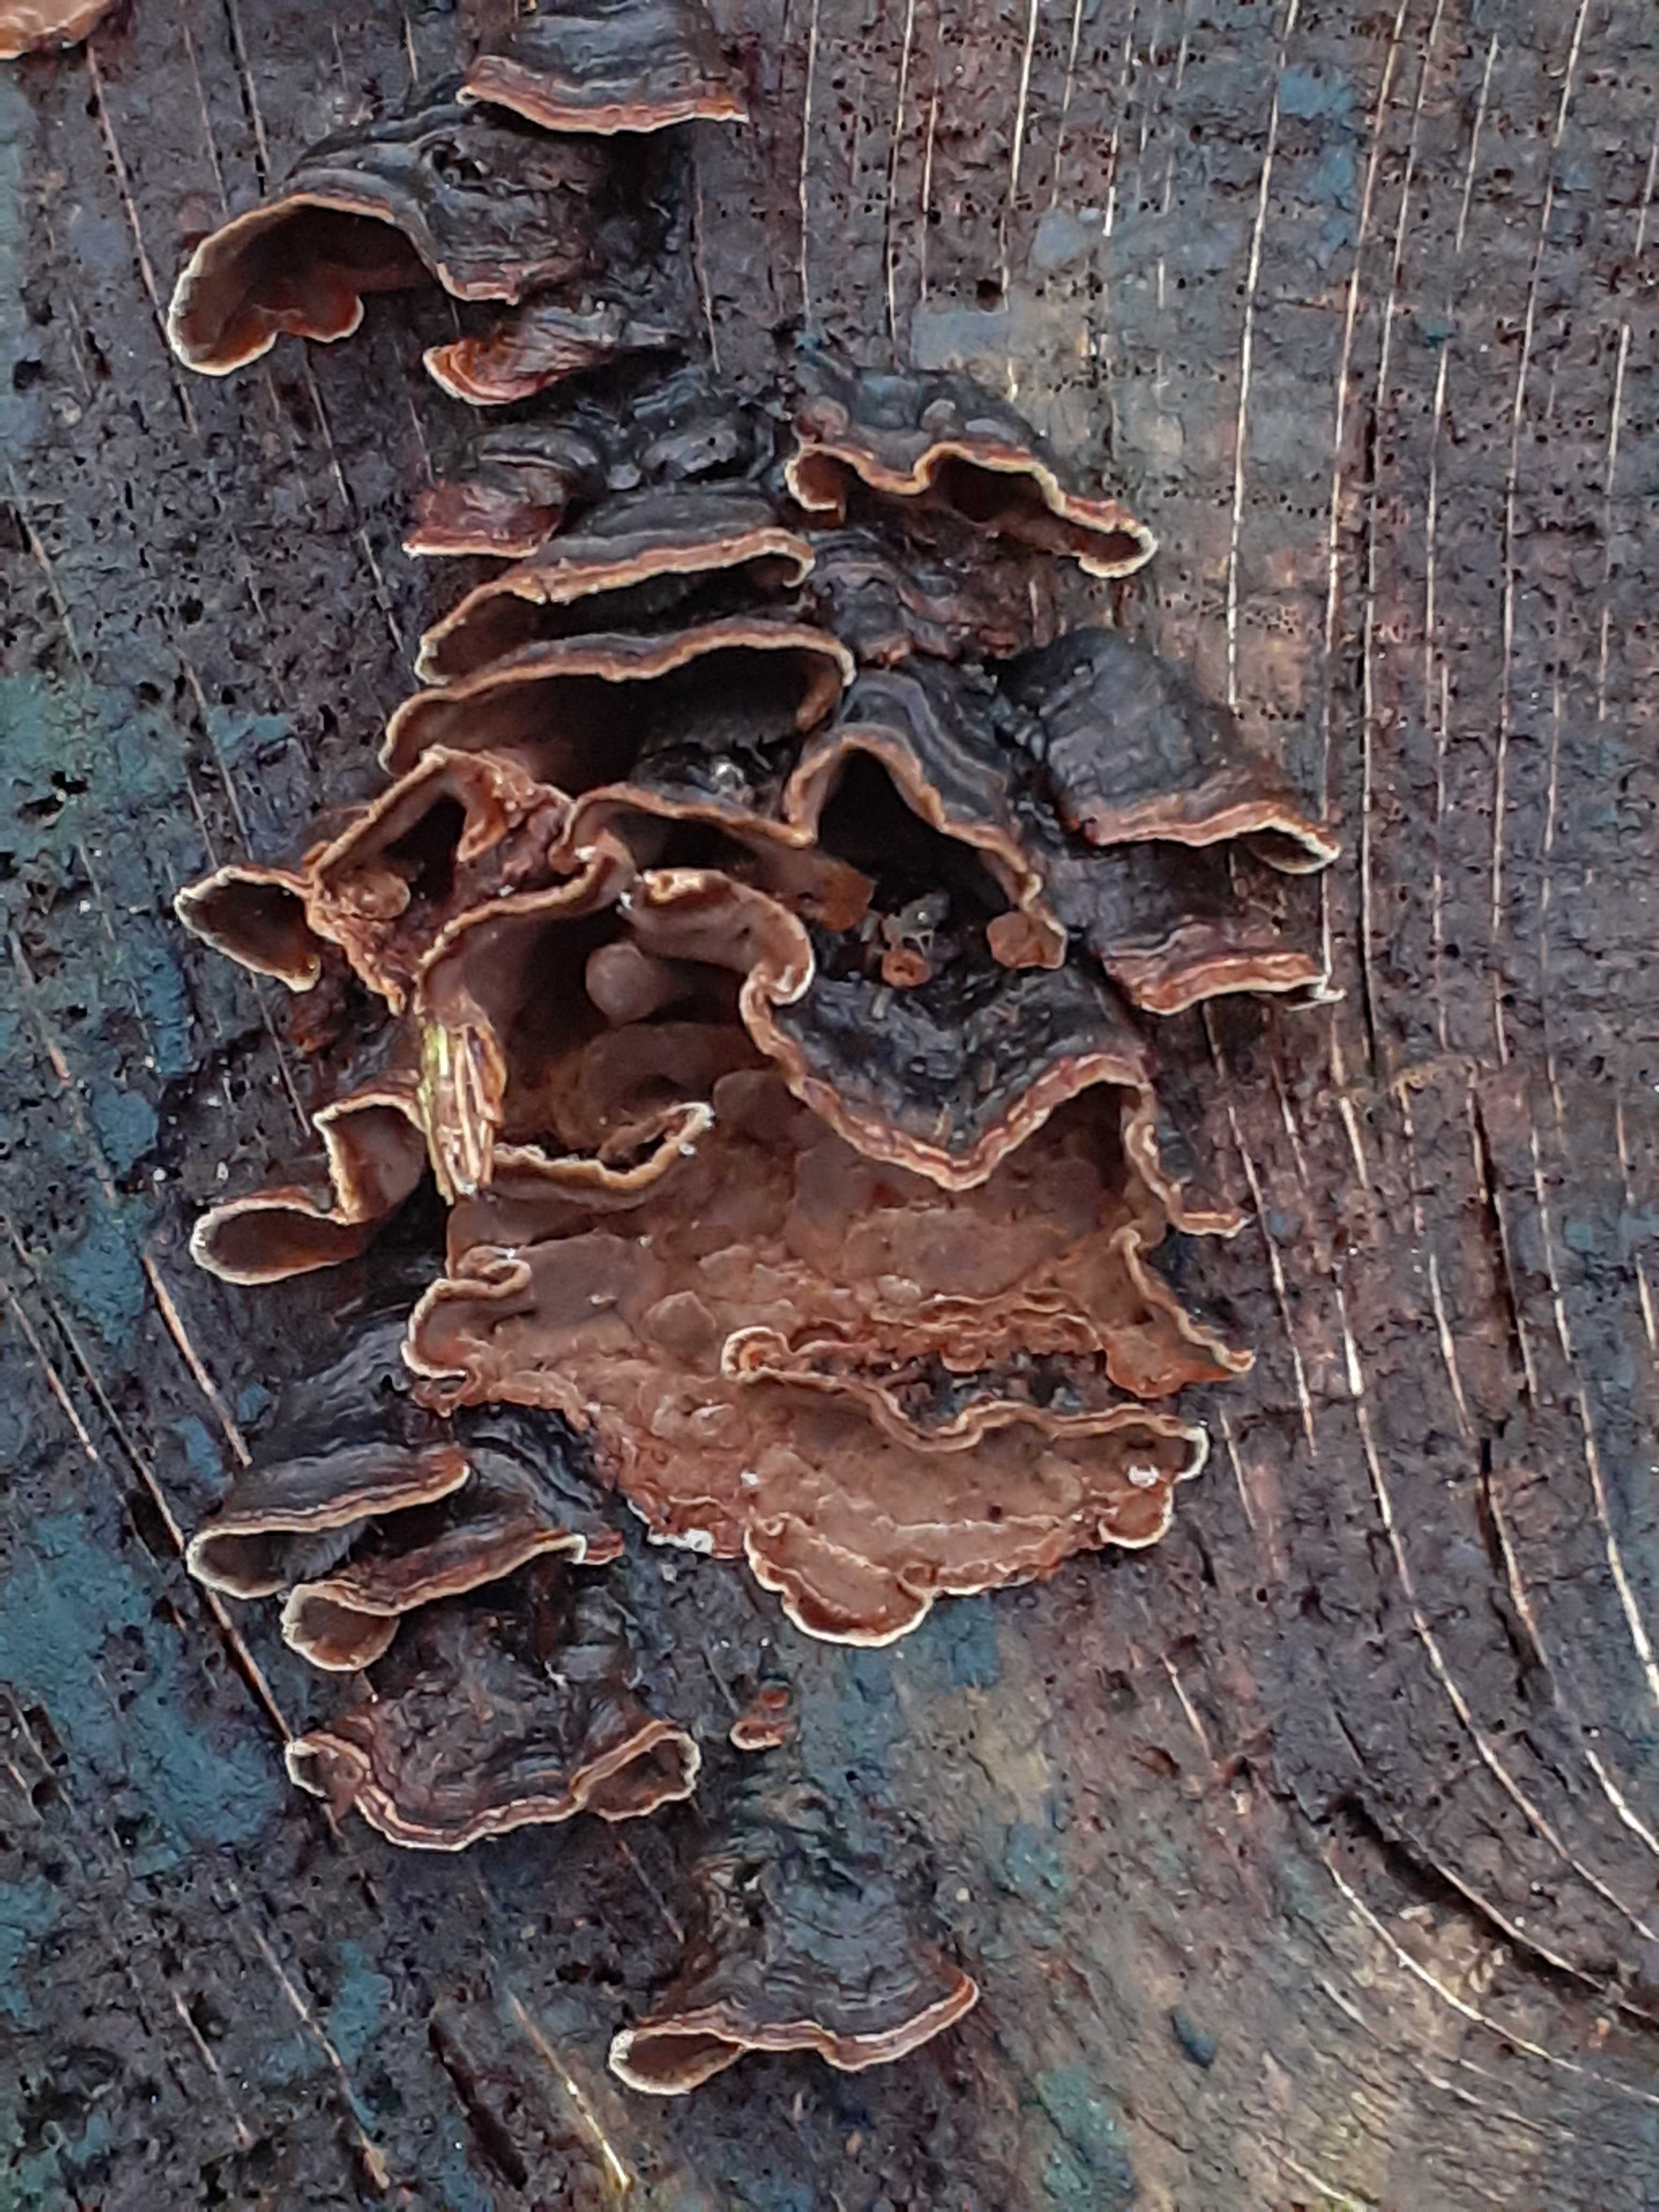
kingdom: Fungi
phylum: Basidiomycota
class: Agaricomycetes
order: Hymenochaetales
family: Hymenochaetaceae
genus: Hymenochaete
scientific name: Hymenochaete rubiginosa
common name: stiv ruslædersvamp
